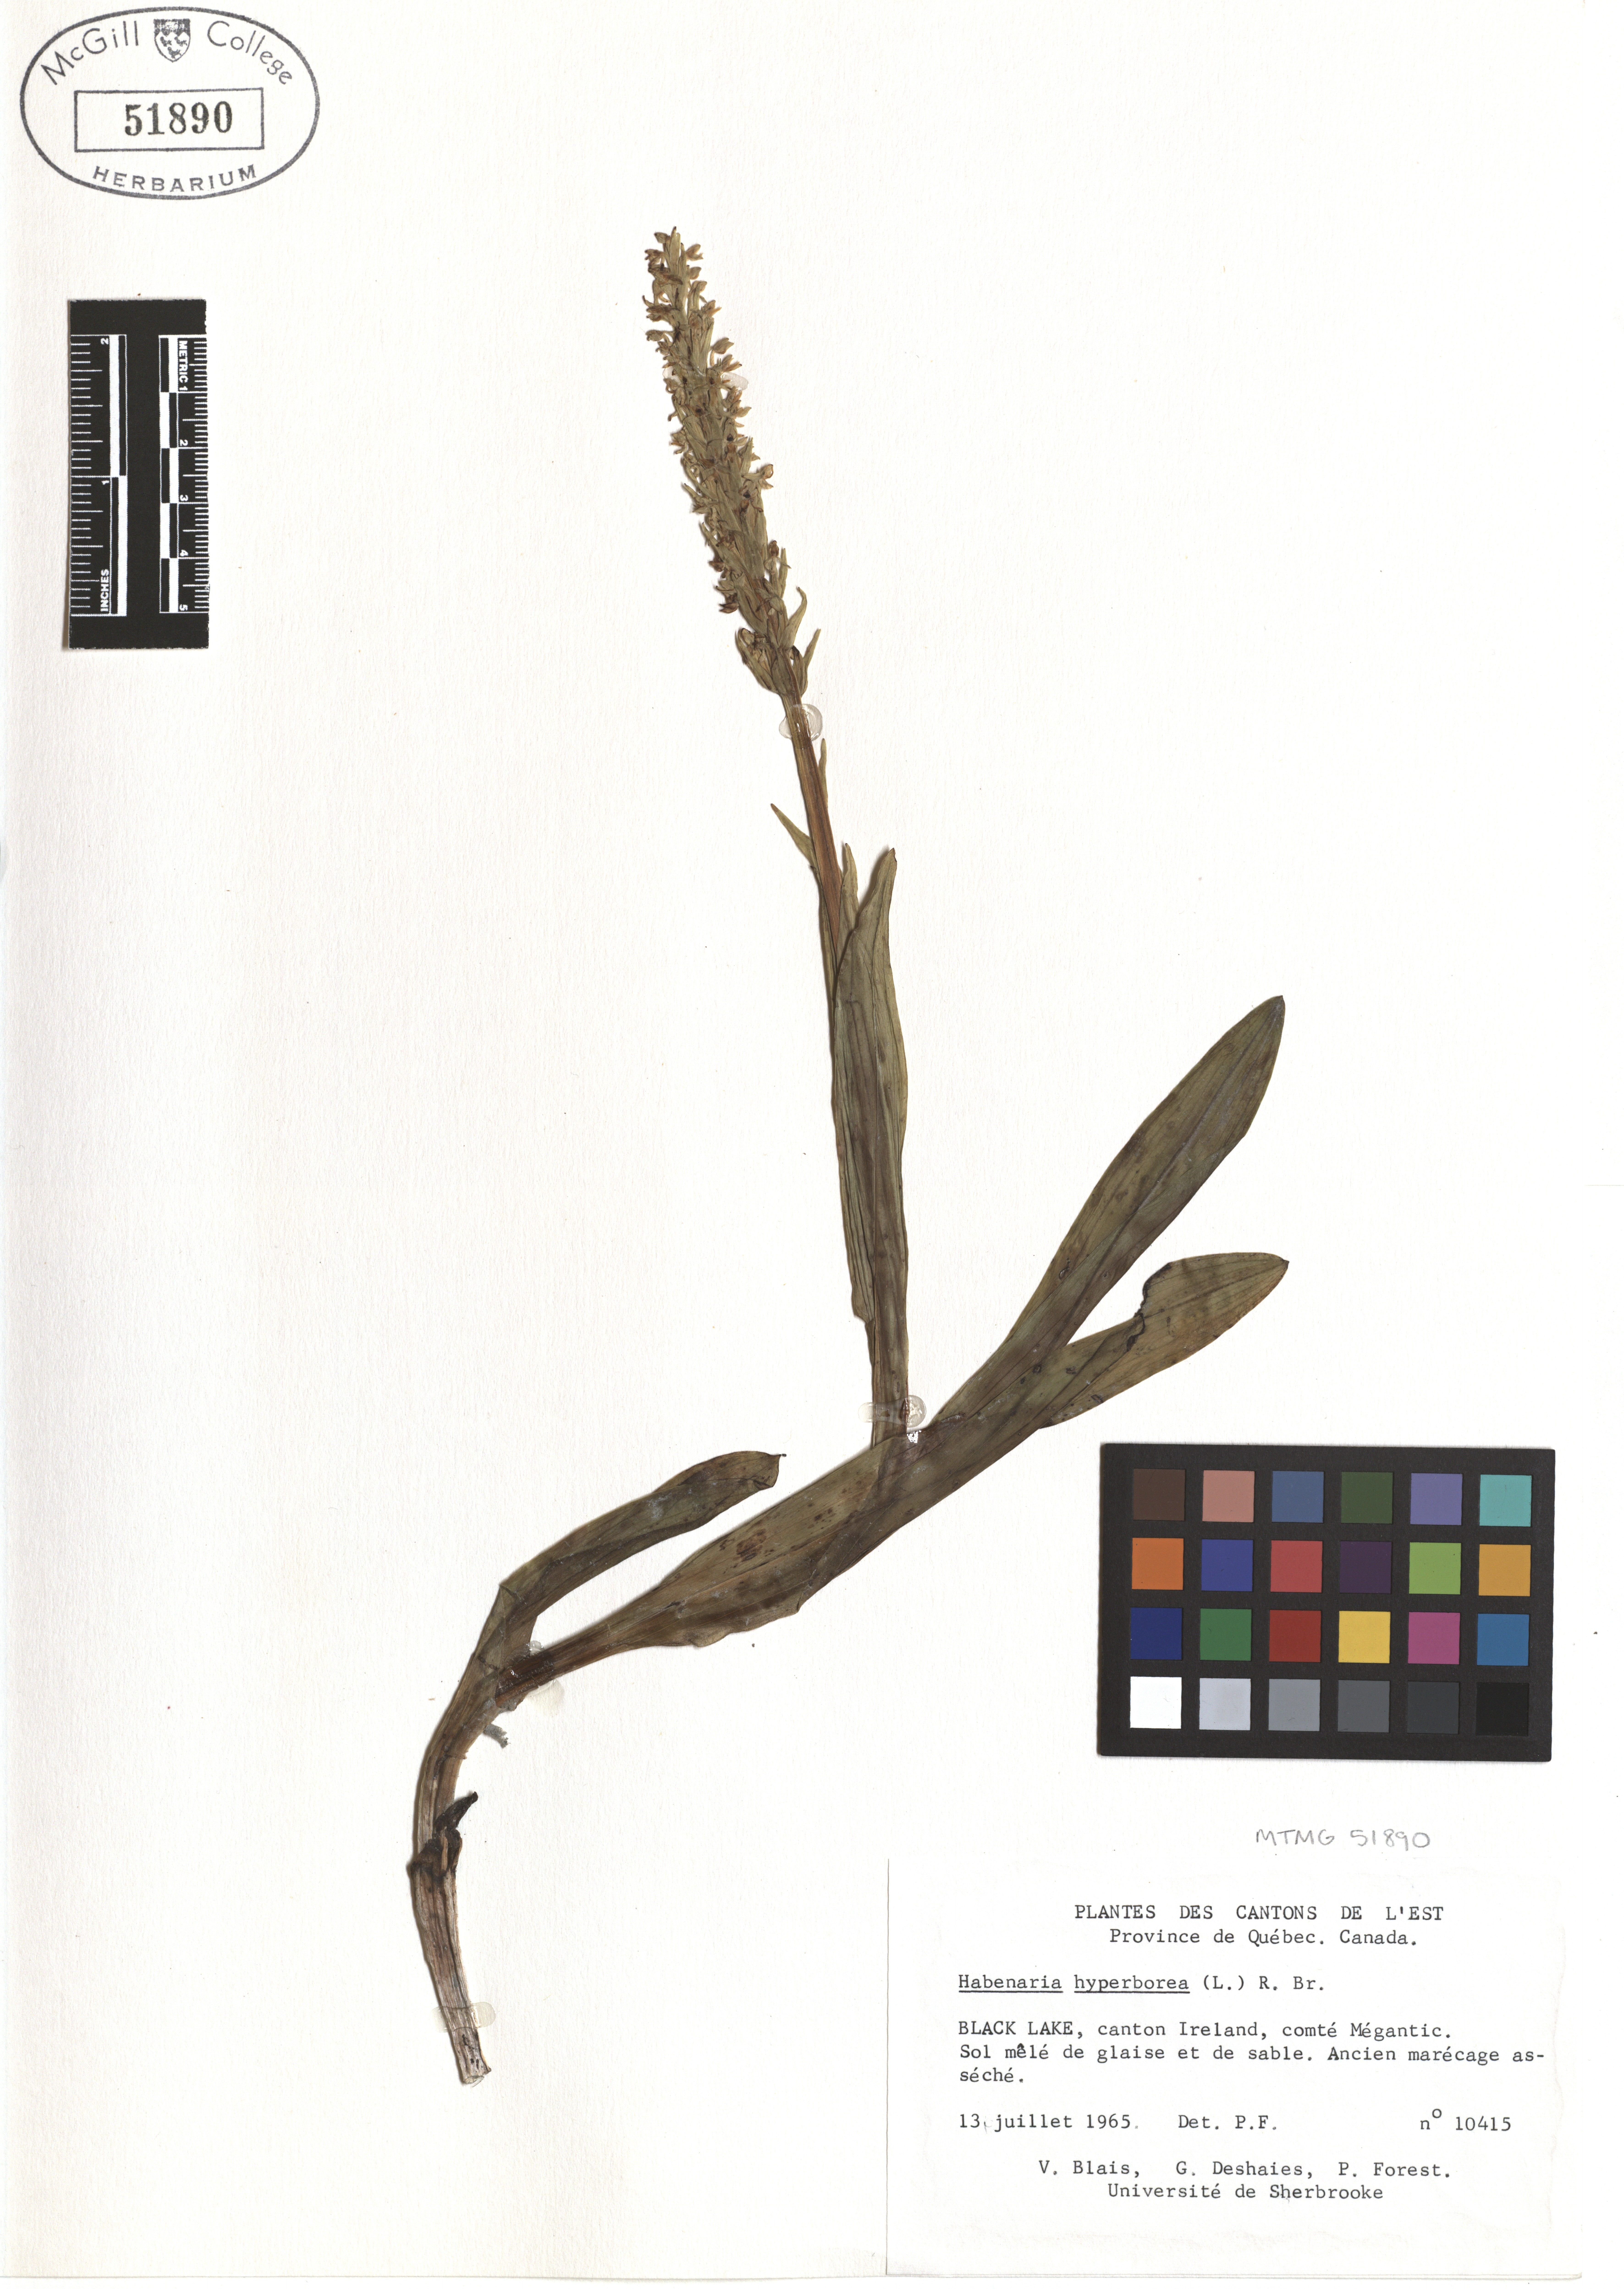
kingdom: Plantae
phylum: Tracheophyta
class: Liliopsida
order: Asparagales
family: Orchidaceae
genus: Platanthera
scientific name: Platanthera hyperborea
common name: Northern green orchid
